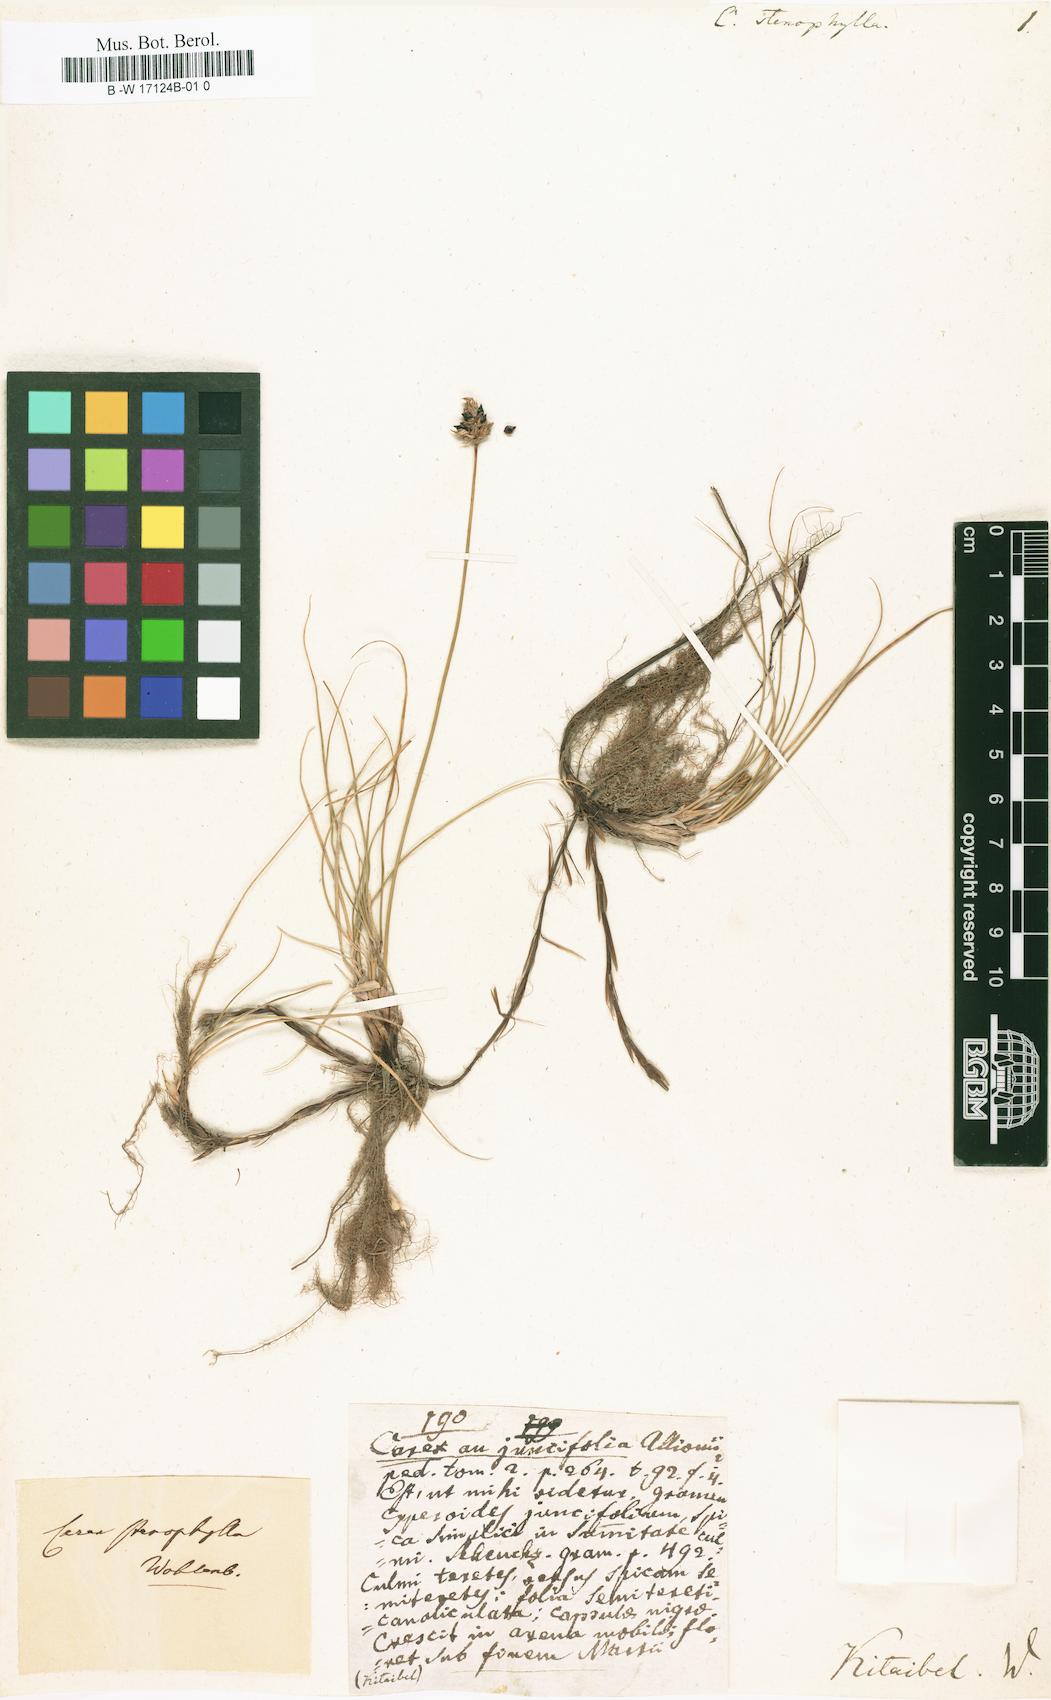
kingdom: Plantae
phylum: Tracheophyta
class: Liliopsida
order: Poales
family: Cyperaceae
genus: Carex
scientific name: Carex stenophylla
